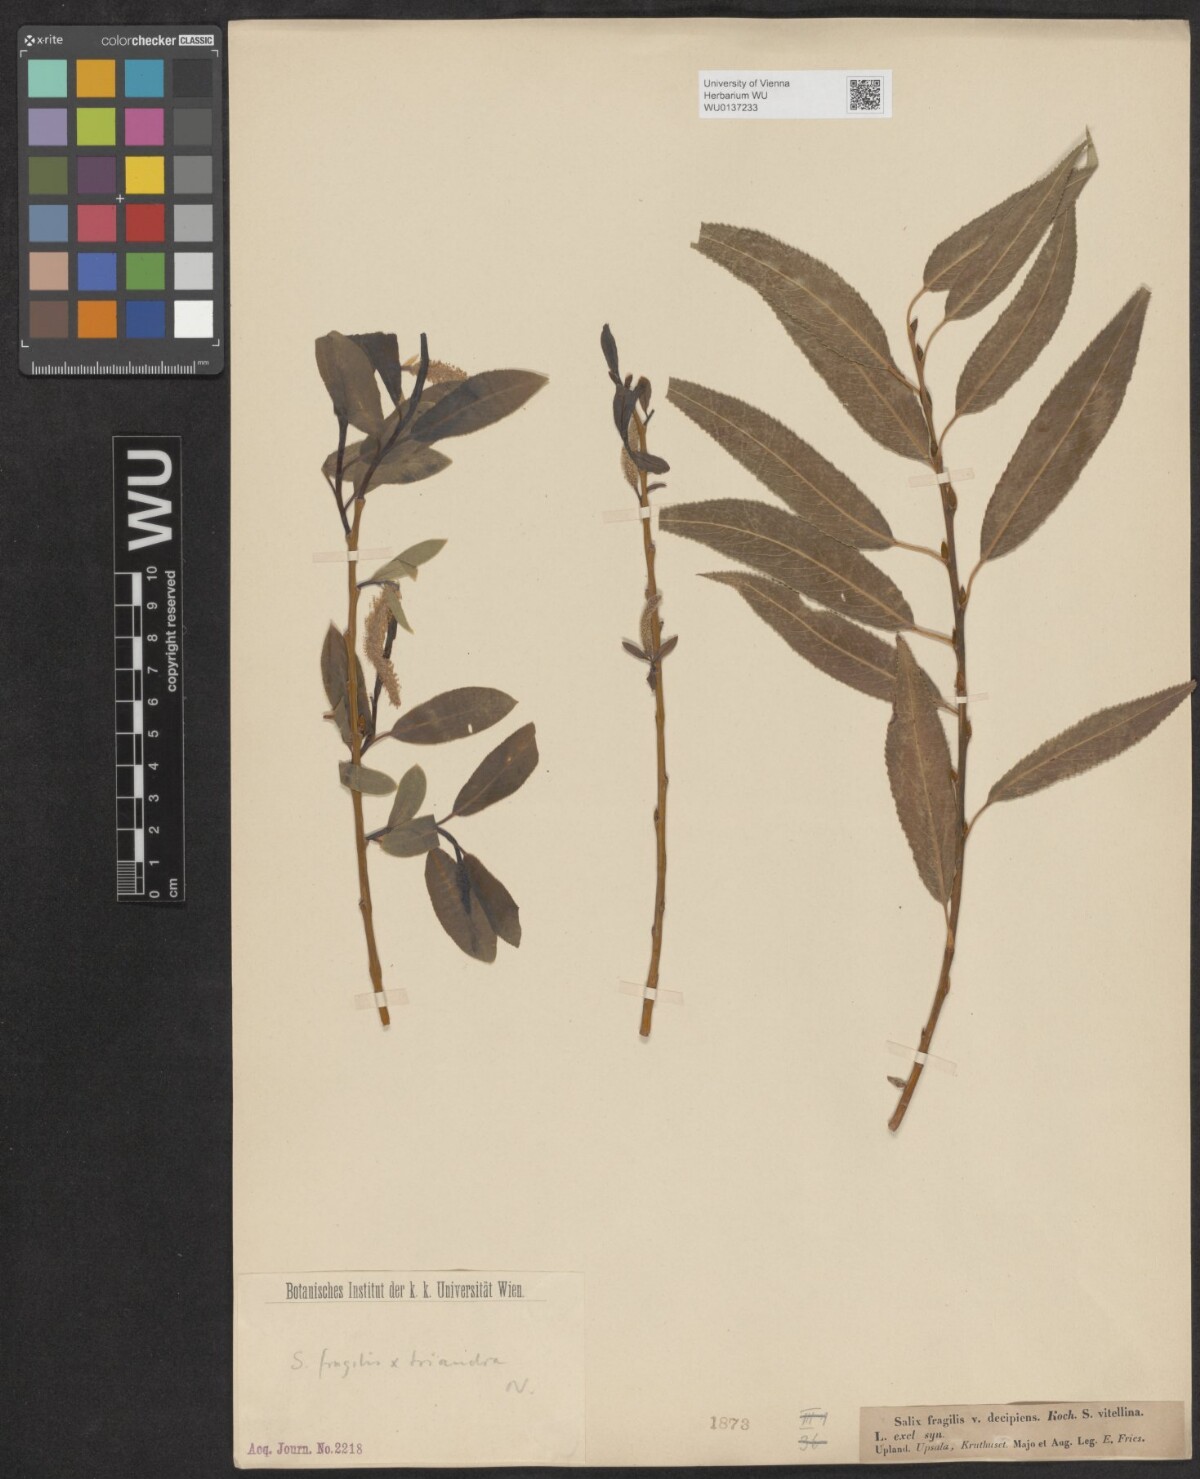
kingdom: Plantae
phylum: Tracheophyta
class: Magnoliopsida
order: Malpighiales
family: Salicaceae
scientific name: Salicaceae
